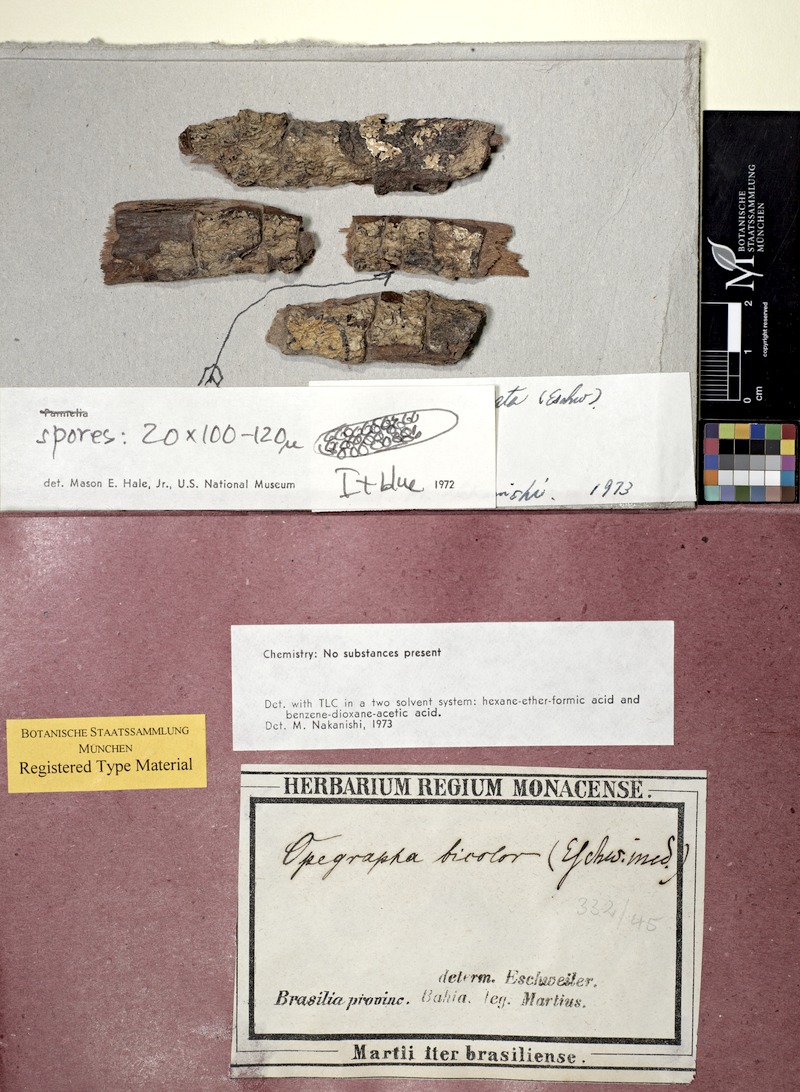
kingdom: Fungi
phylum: Ascomycota
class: Lecanoromycetes
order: Ostropales
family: Graphidaceae
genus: Allographa
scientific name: Allographa illinata
